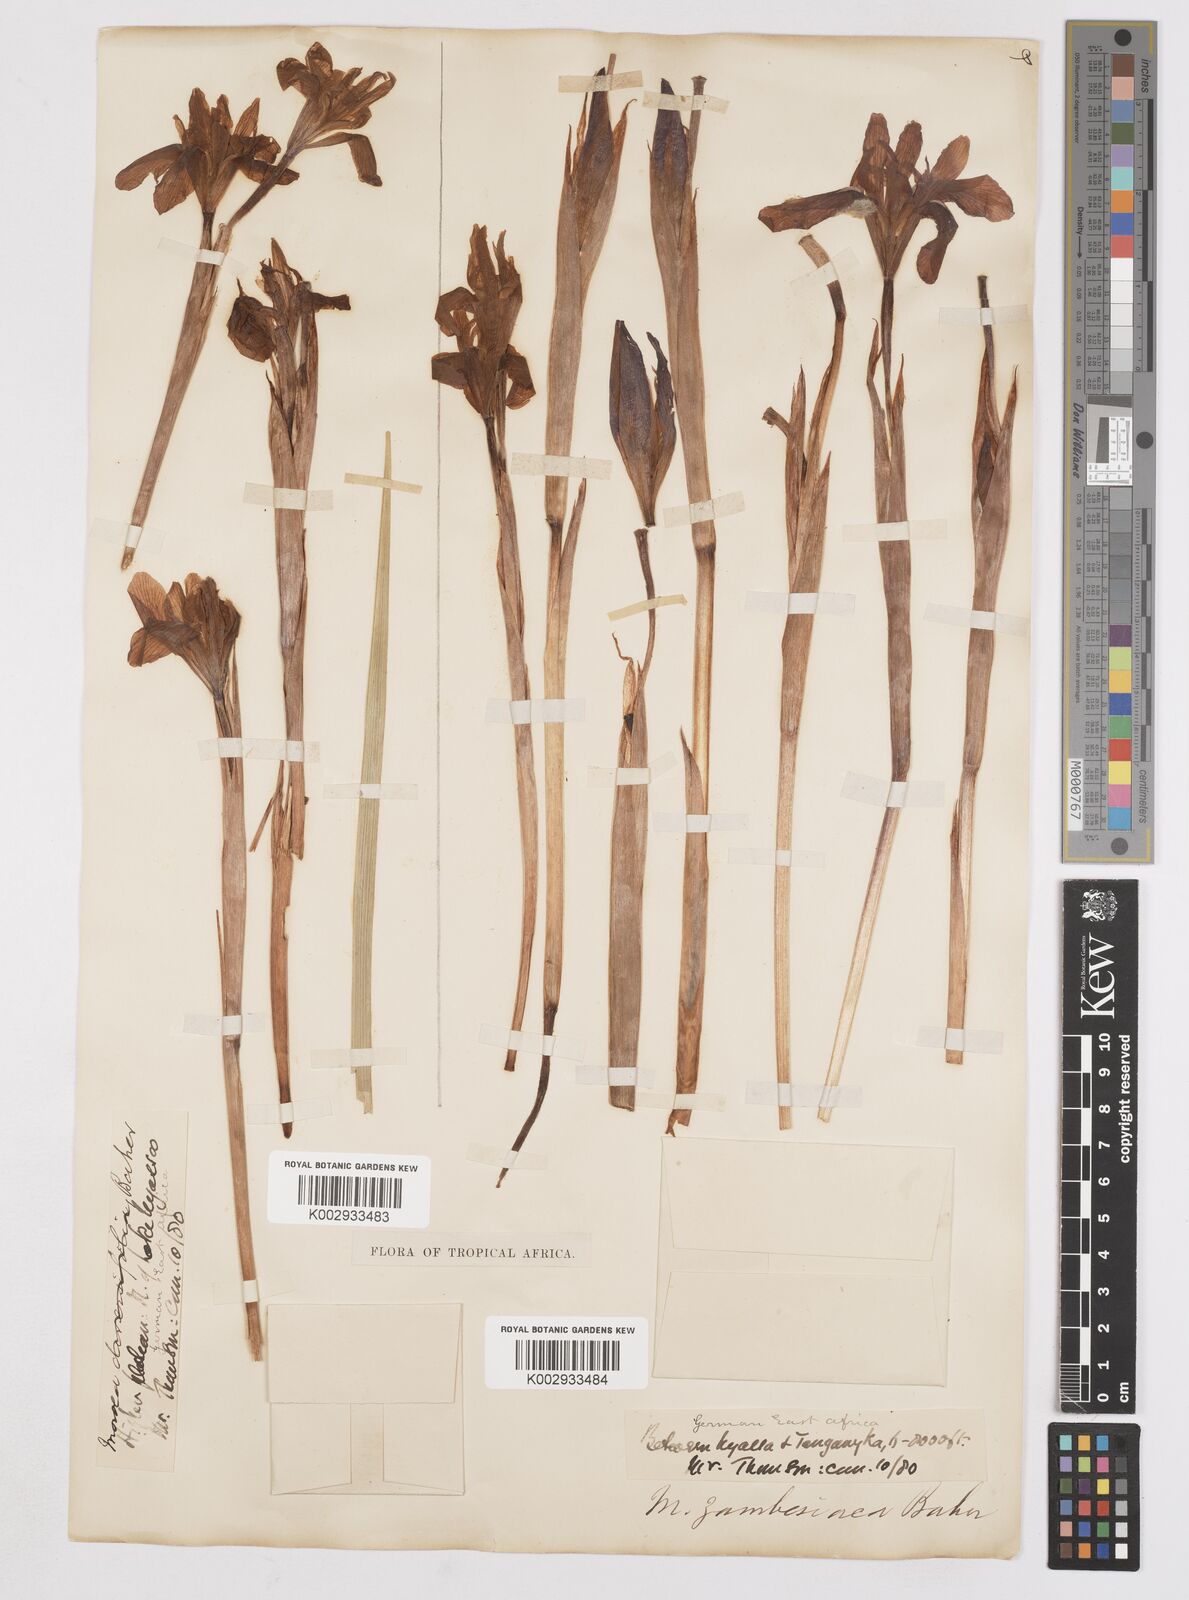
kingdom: Plantae
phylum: Tracheophyta
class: Liliopsida
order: Asparagales
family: Iridaceae
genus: Moraea
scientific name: Moraea schimperi
